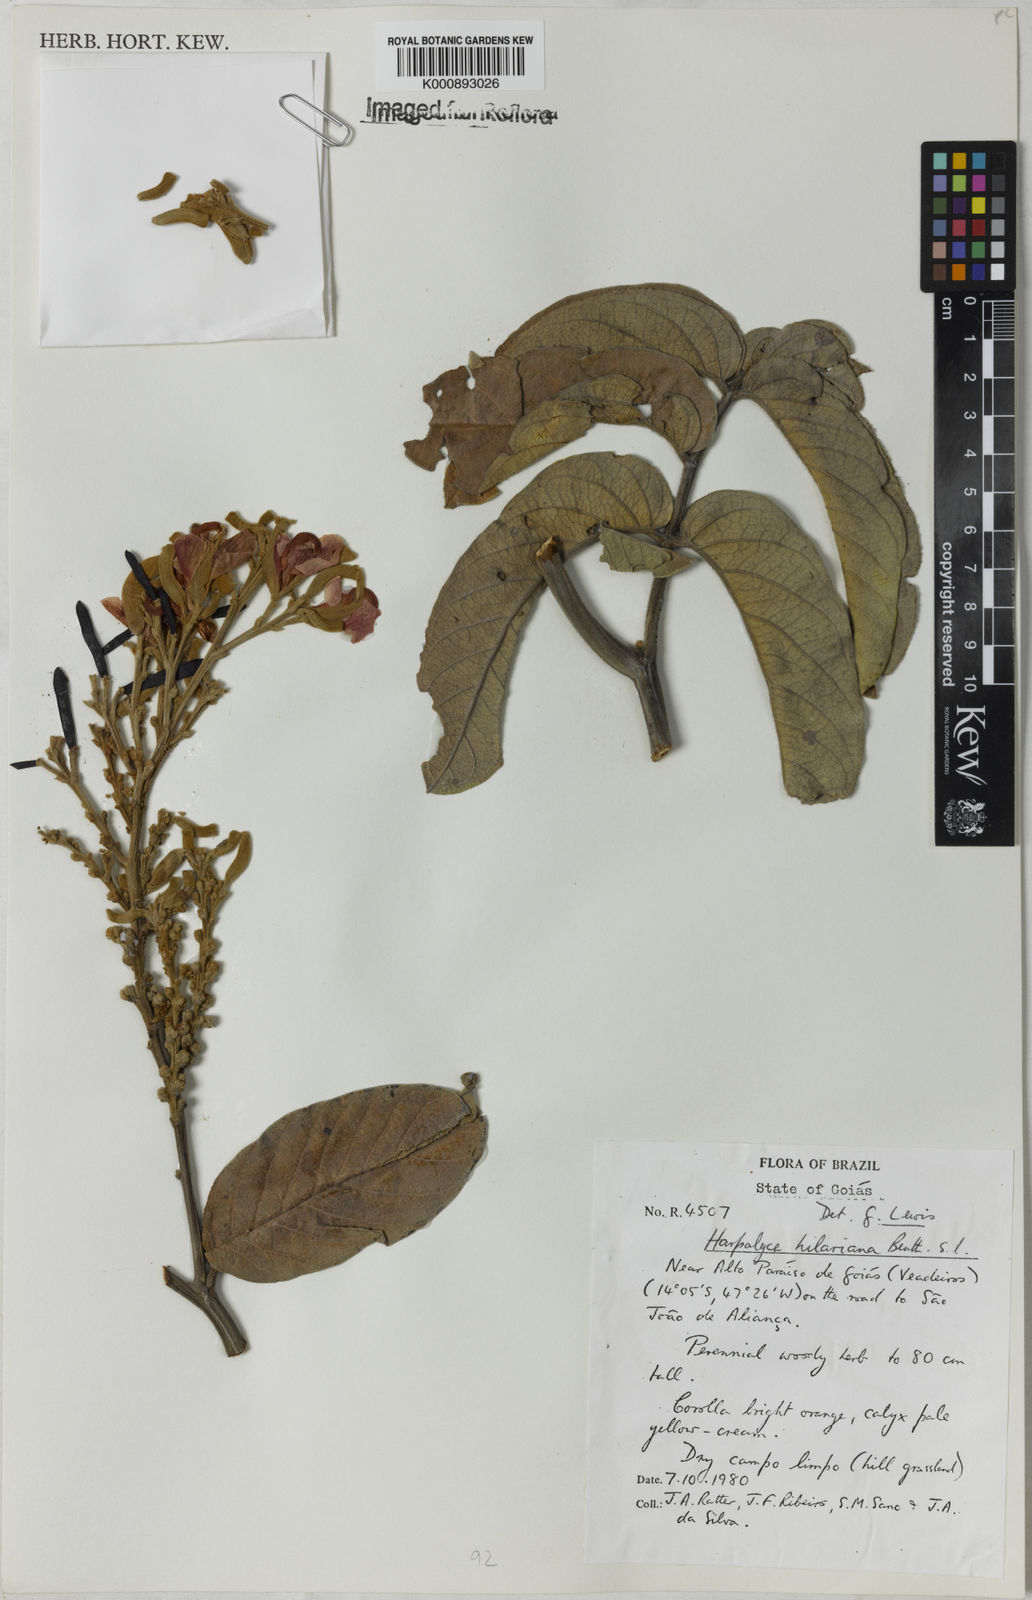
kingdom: Plantae
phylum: Tracheophyta
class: Magnoliopsida
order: Fabales
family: Fabaceae
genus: Harpalyce
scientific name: Harpalyce hilariana
